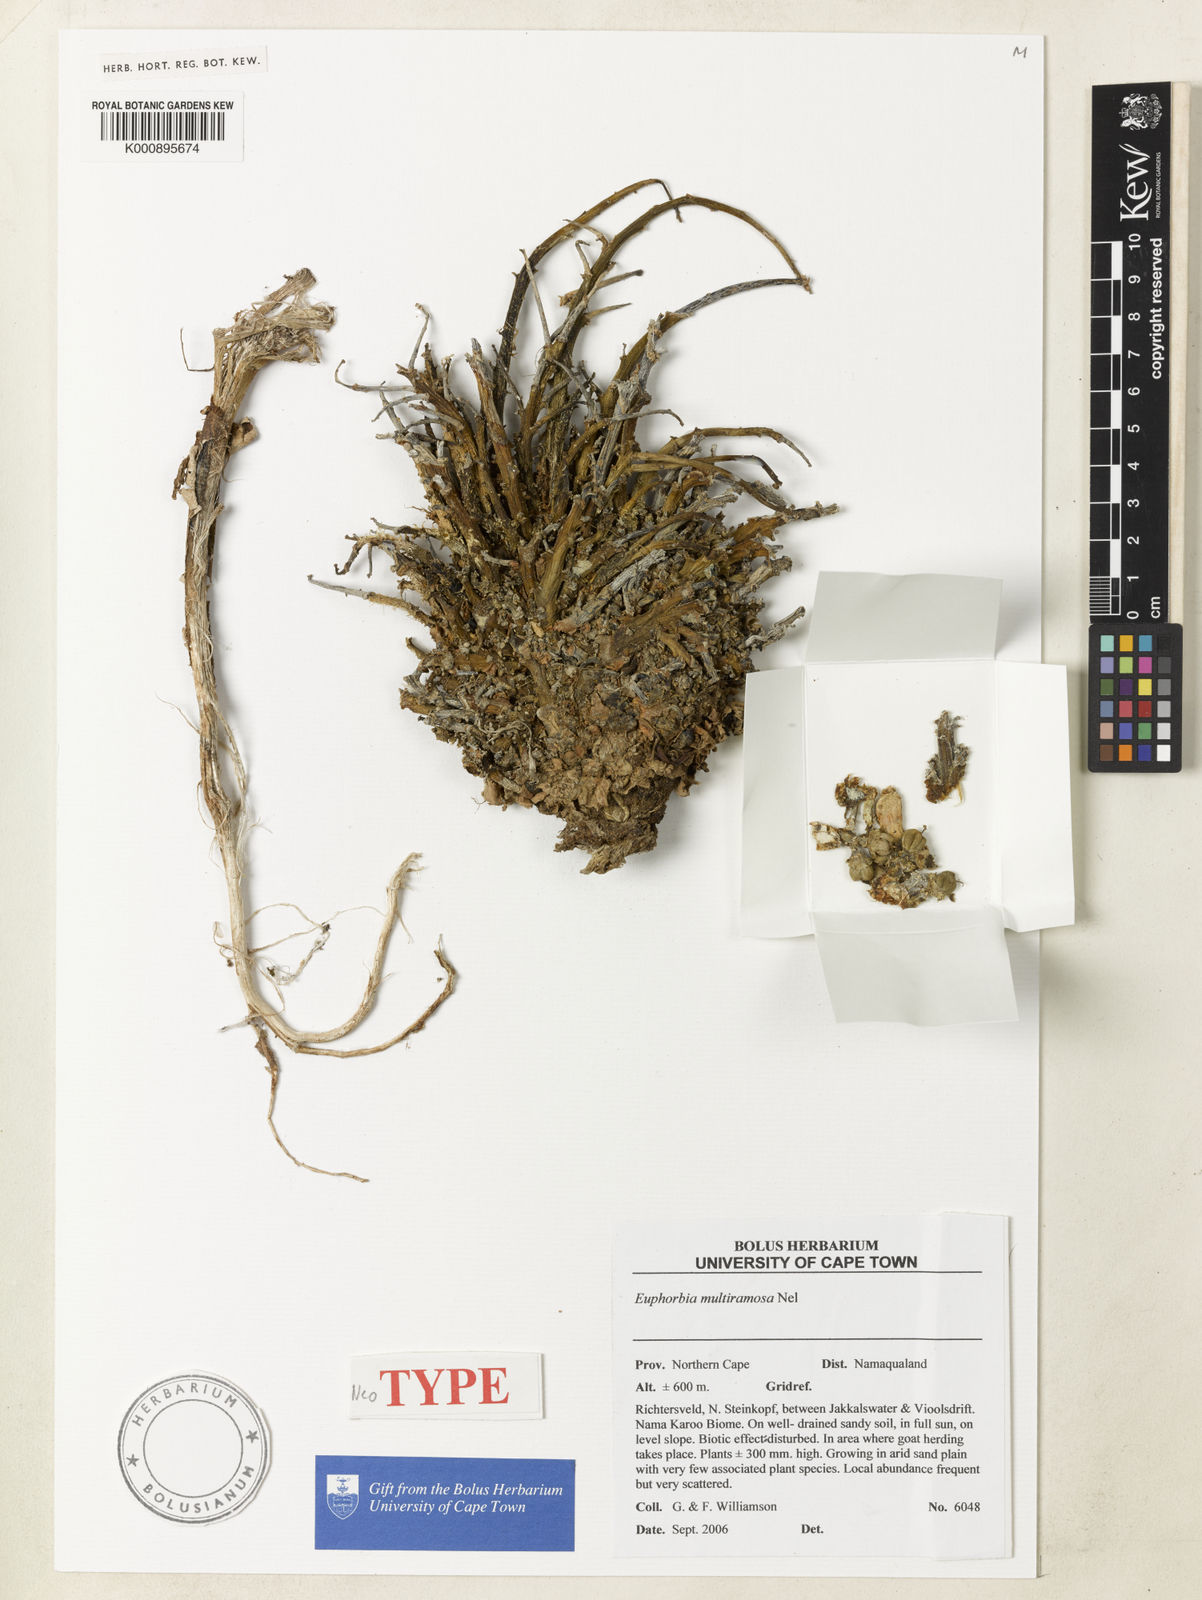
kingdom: Plantae
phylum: Tracheophyta
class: Magnoliopsida
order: Malpighiales
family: Euphorbiaceae
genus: Euphorbia
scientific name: Euphorbia namaquensis
